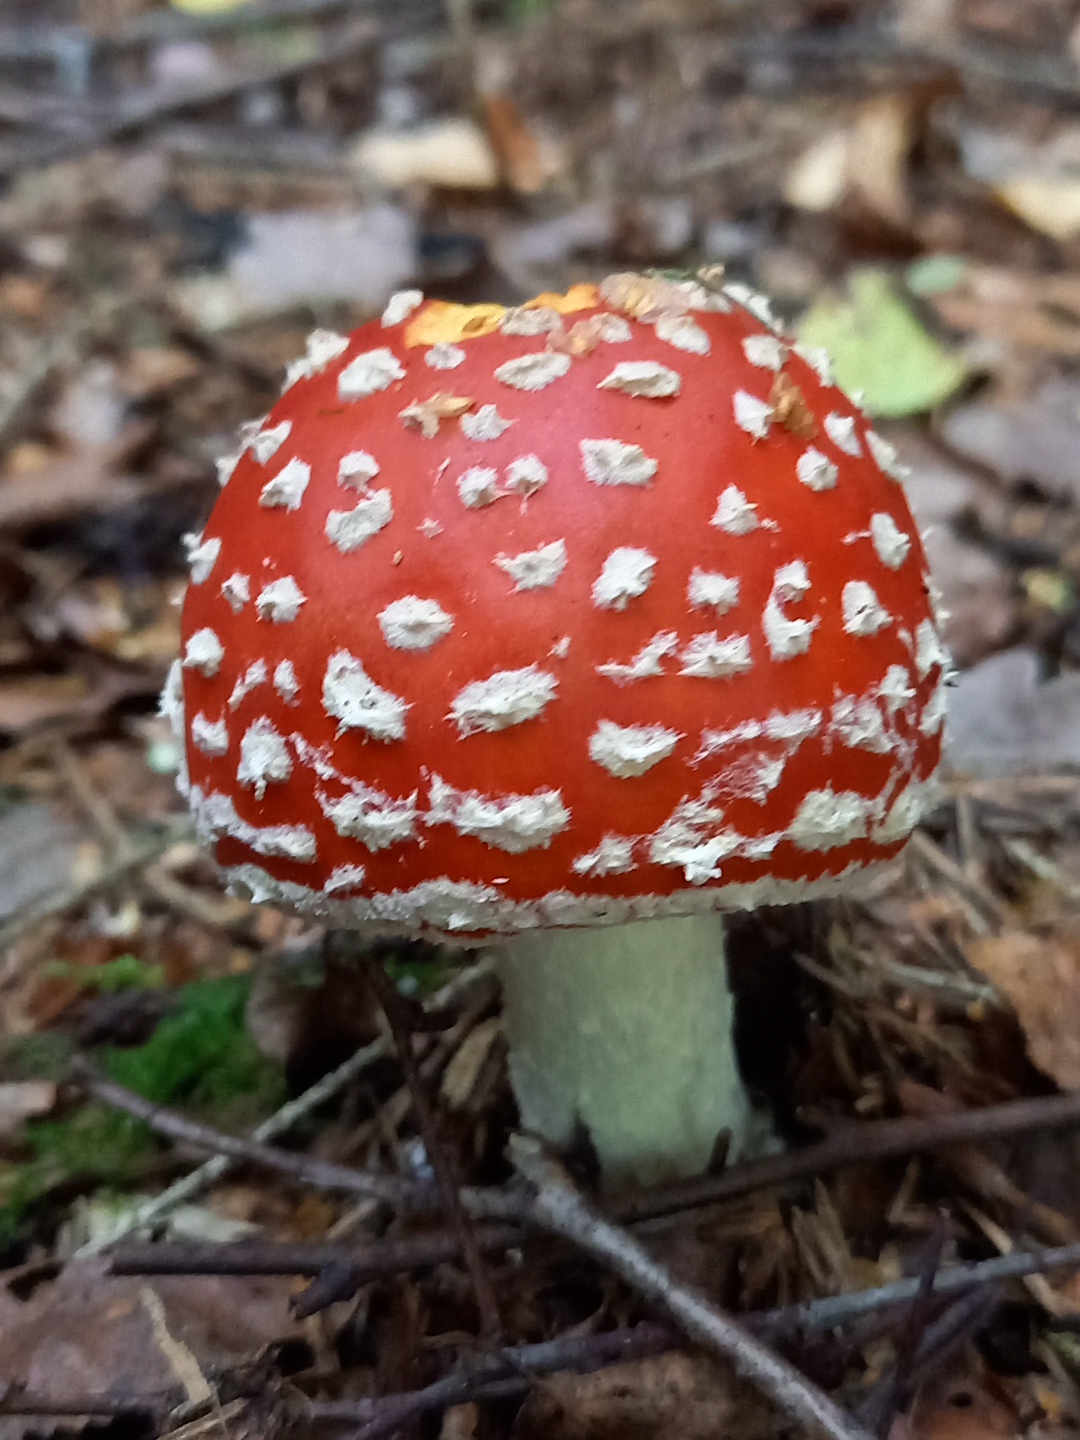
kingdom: Fungi
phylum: Basidiomycota
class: Agaricomycetes
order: Agaricales
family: Amanitaceae
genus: Amanita
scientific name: Amanita muscaria
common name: rød fluesvamp
